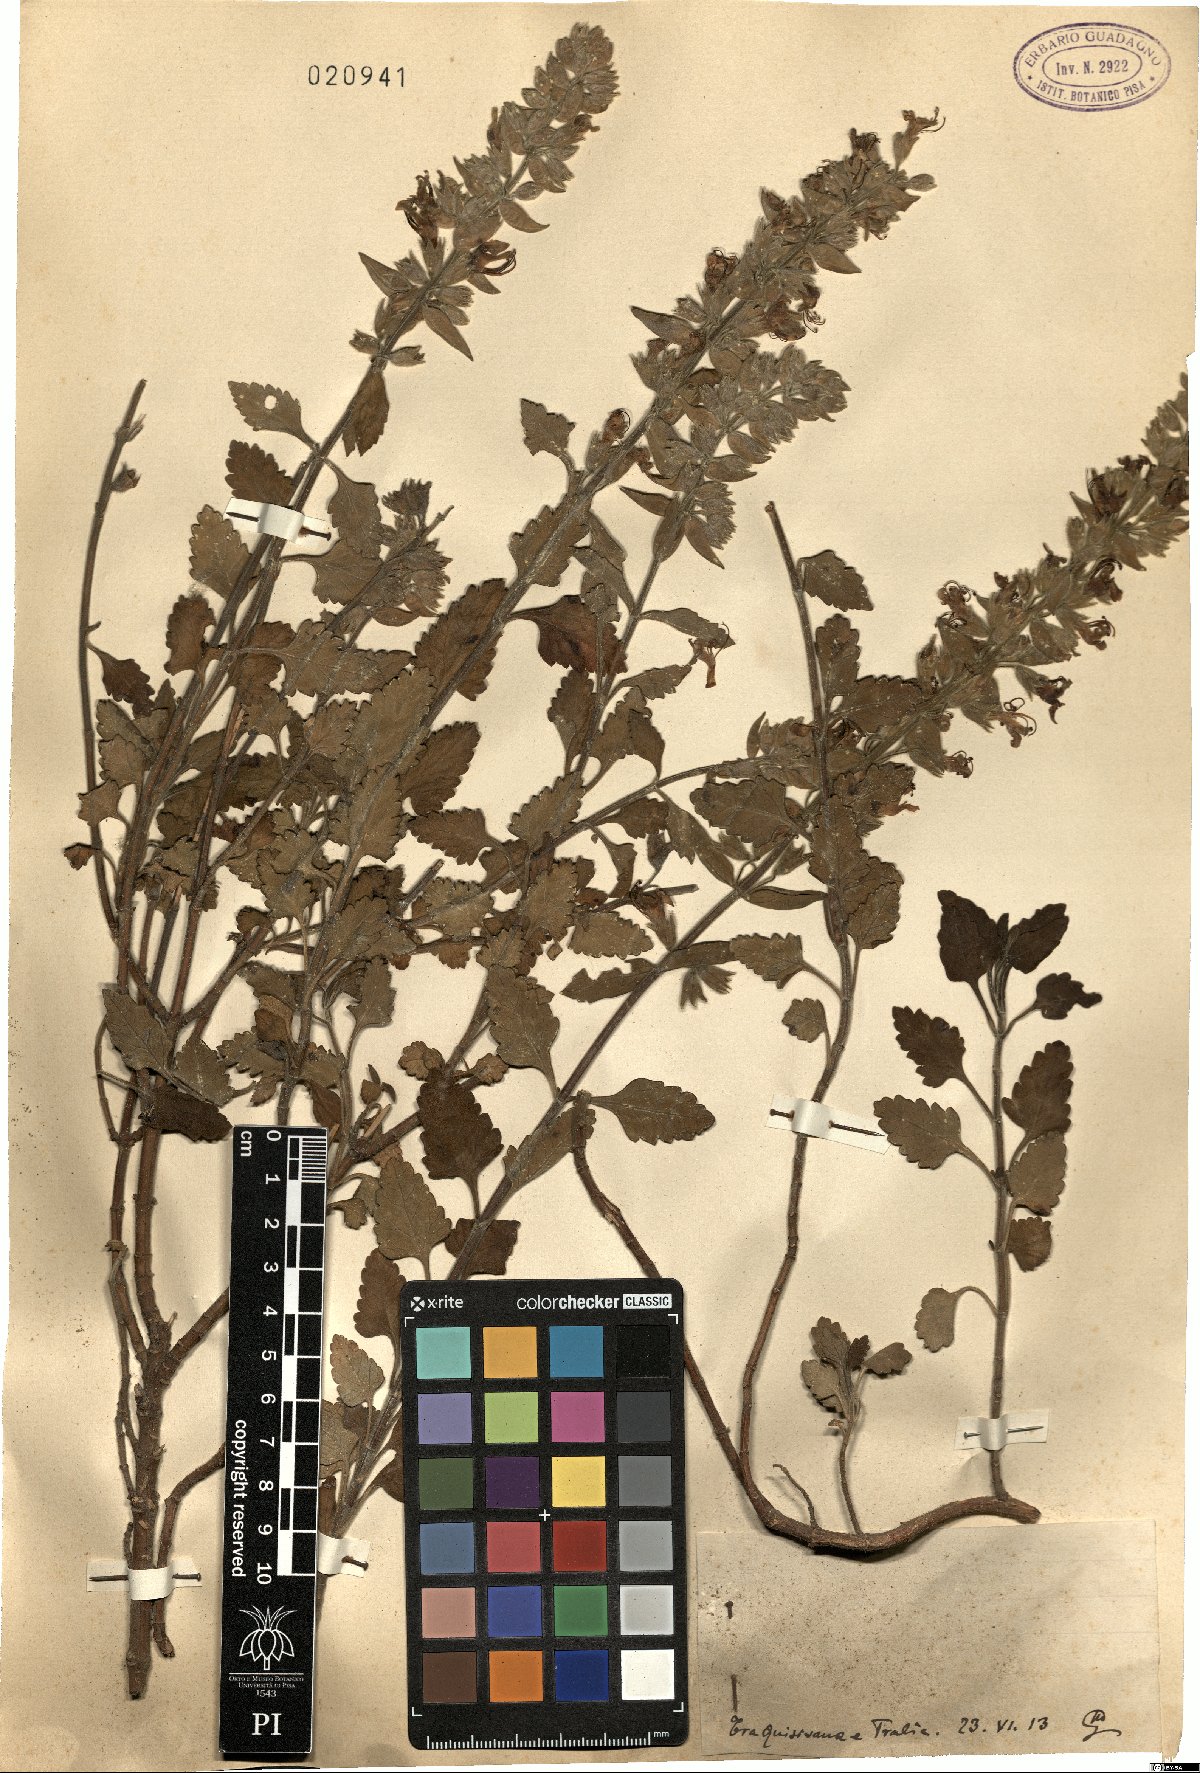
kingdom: Plantae
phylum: Tracheophyta
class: Magnoliopsida
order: Lamiales
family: Lamiaceae
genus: Teucrium
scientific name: Teucrium
